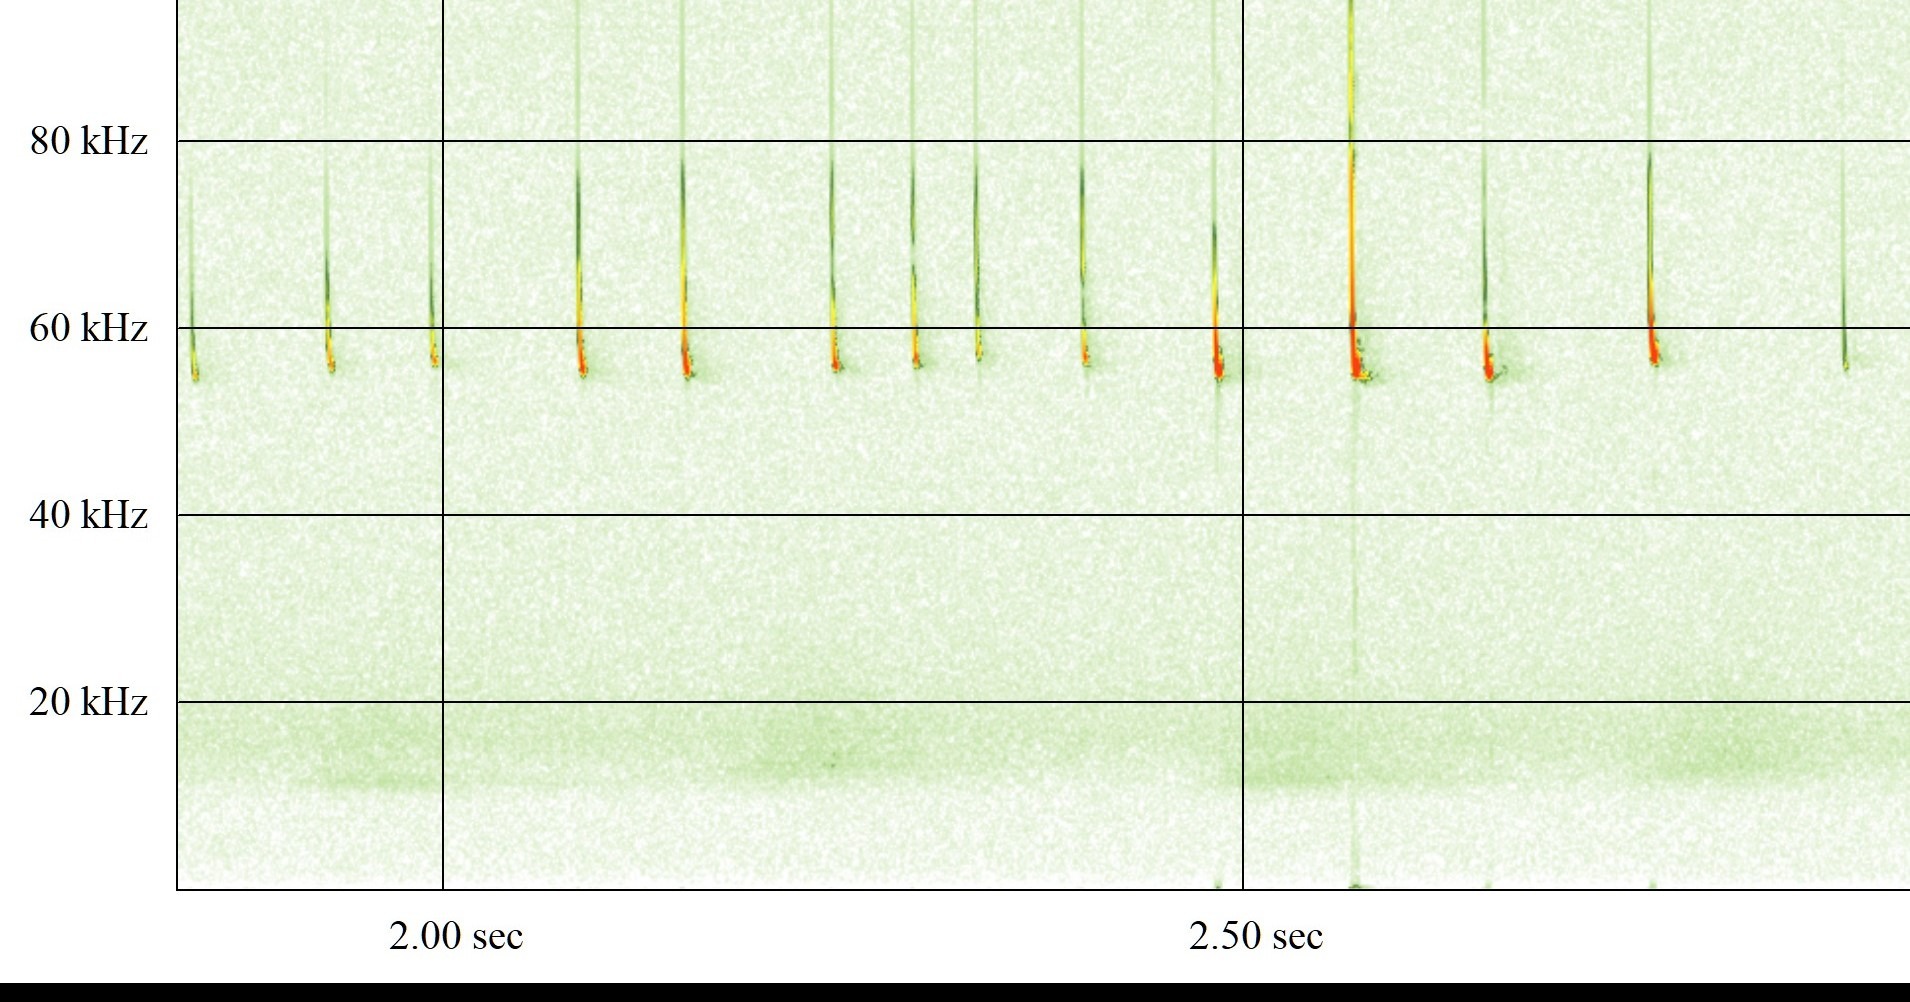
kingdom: Animalia
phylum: Chordata
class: Mammalia
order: Chiroptera
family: Vespertilionidae
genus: Pipistrellus
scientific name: Pipistrellus pygmaeus
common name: Dværgflagermus
